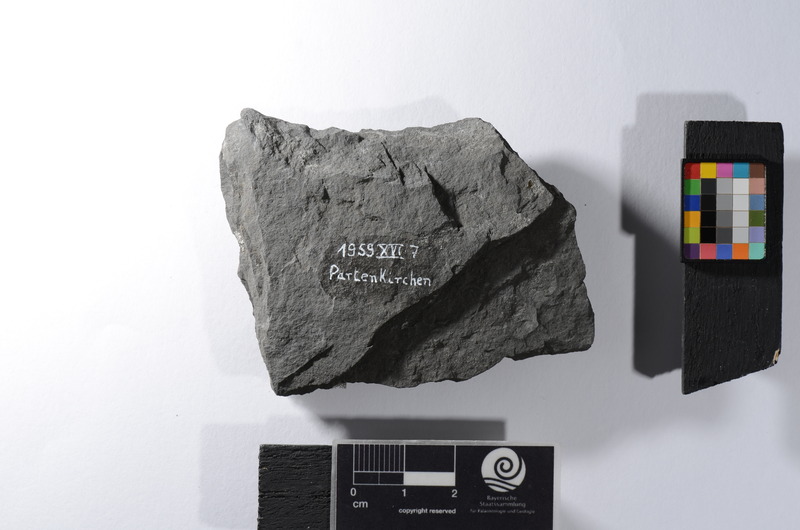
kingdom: Animalia
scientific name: Animalia
